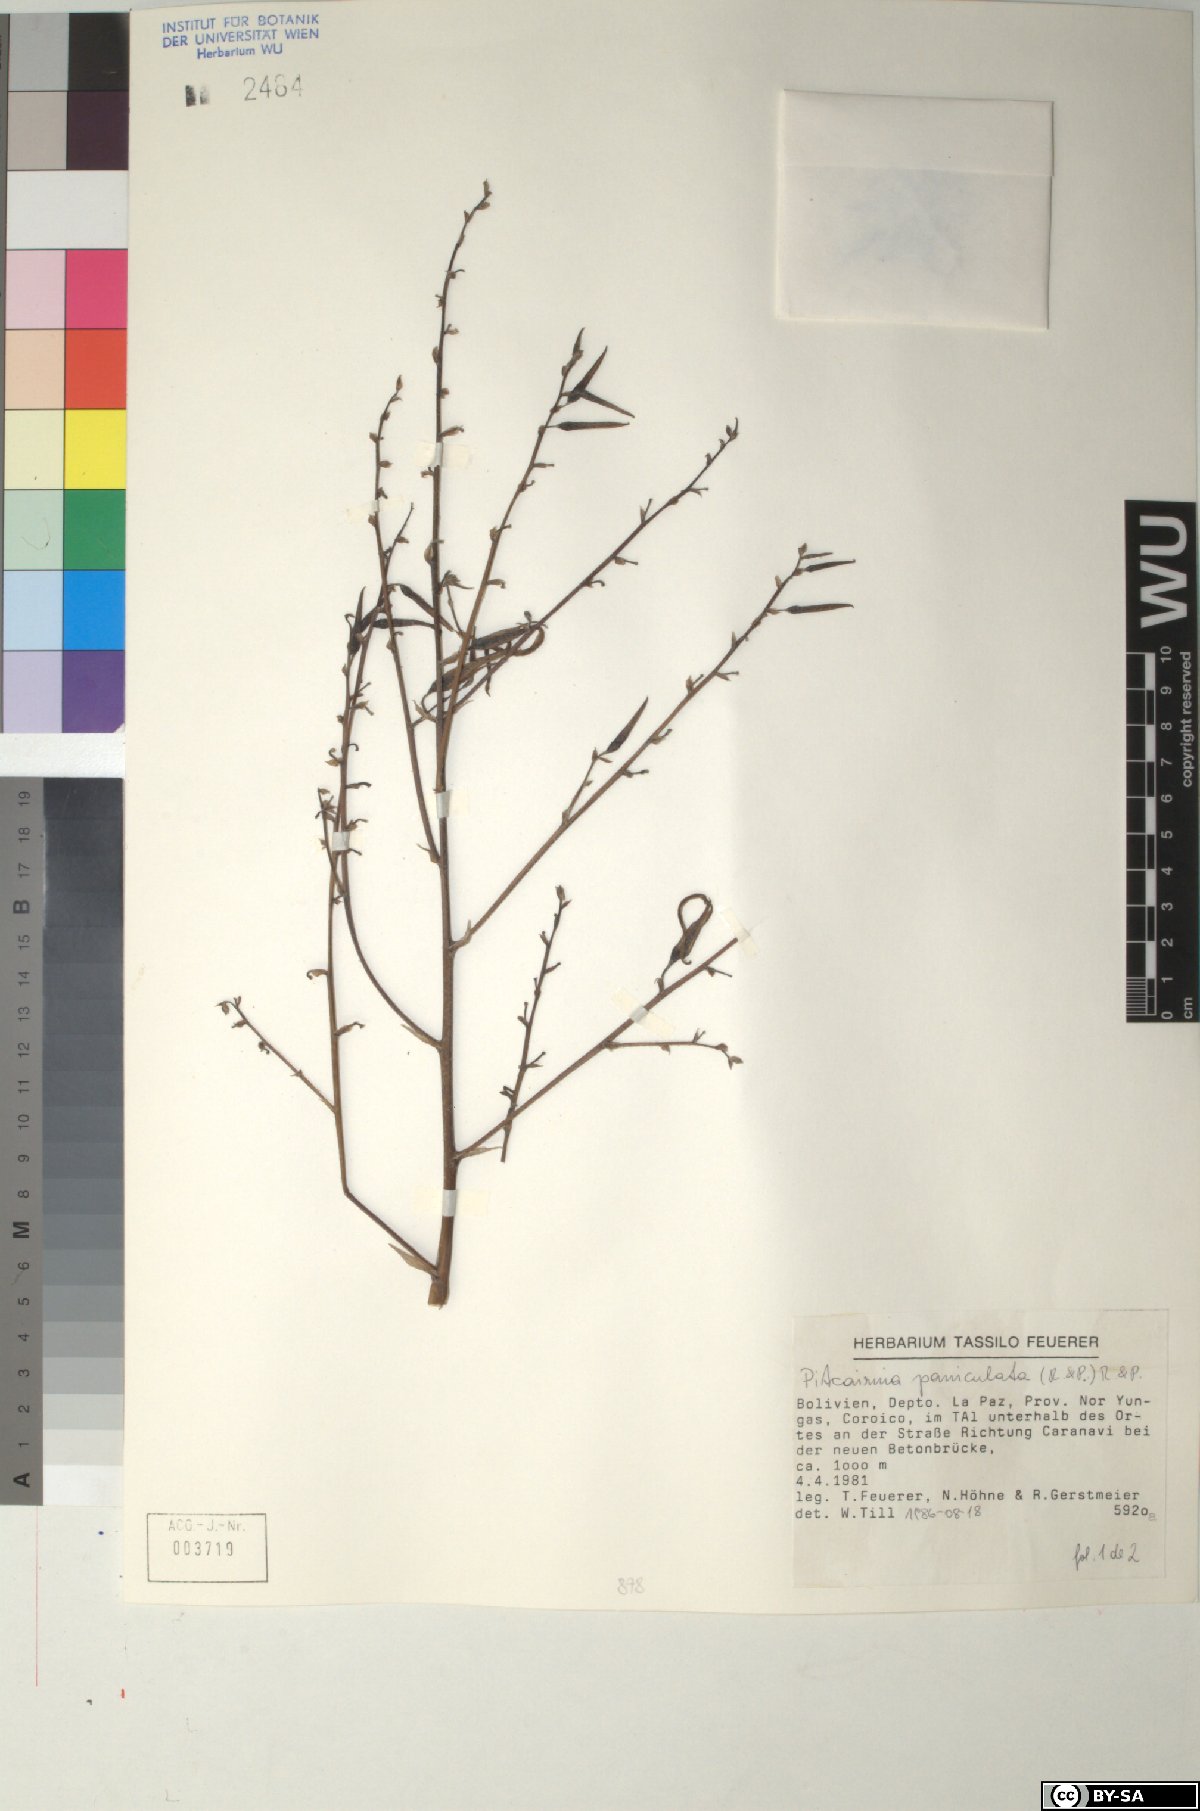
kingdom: Plantae
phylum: Tracheophyta
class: Liliopsida
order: Poales
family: Bromeliaceae
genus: Pitcairnia
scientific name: Pitcairnia paniculata
